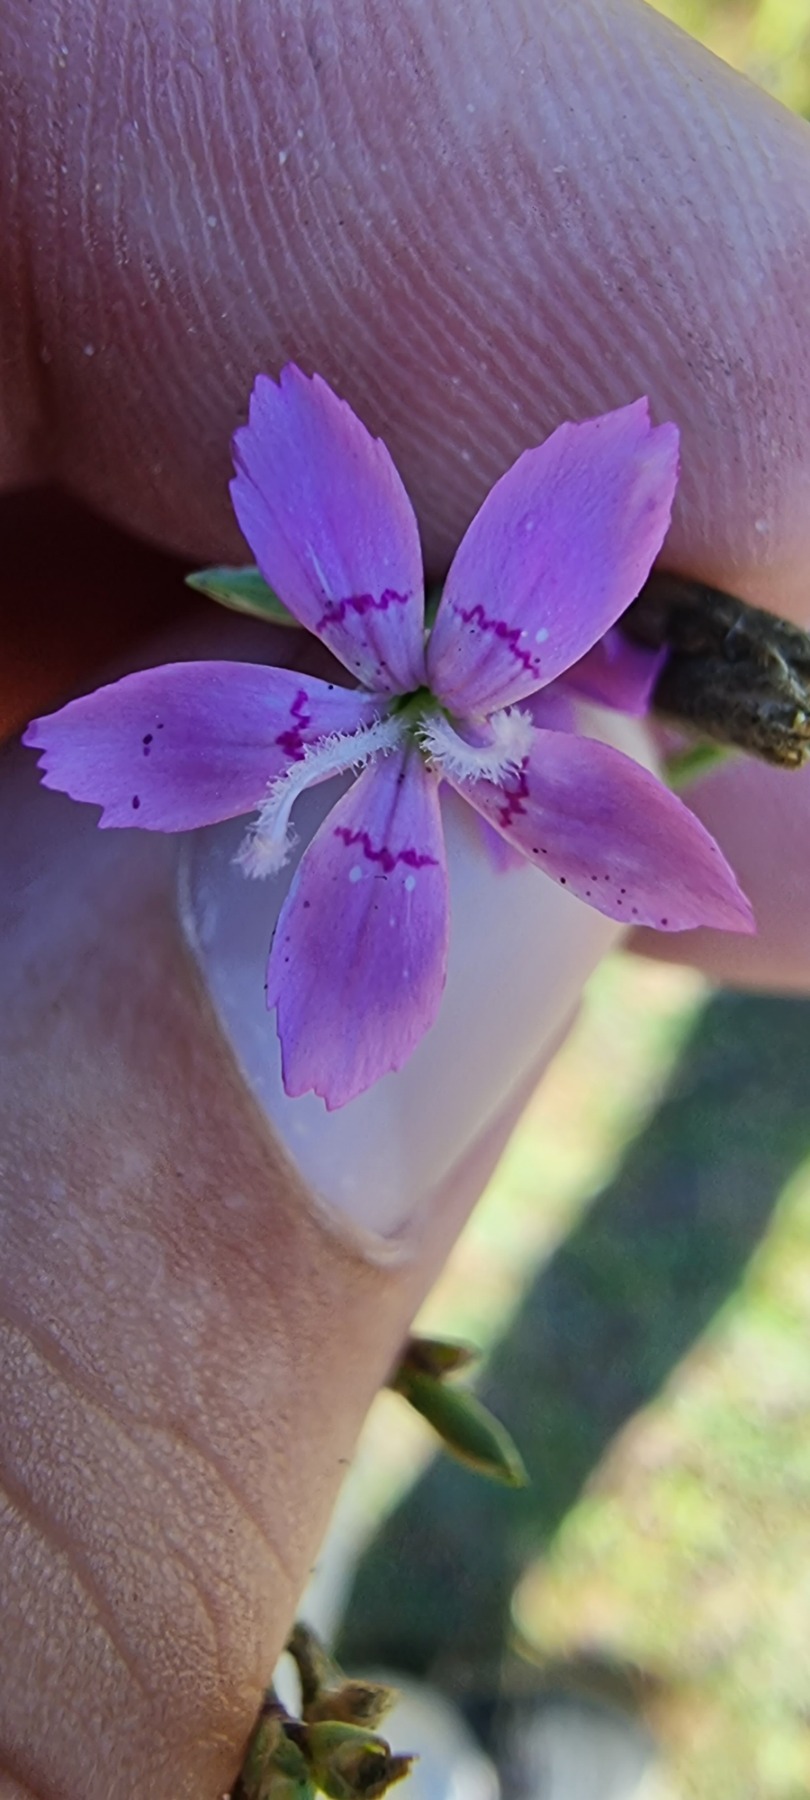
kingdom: Plantae
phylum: Tracheophyta
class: Magnoliopsida
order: Caryophyllales
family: Caryophyllaceae
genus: Dianthus
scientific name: Dianthus deltoides
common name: Bakke-nellike
